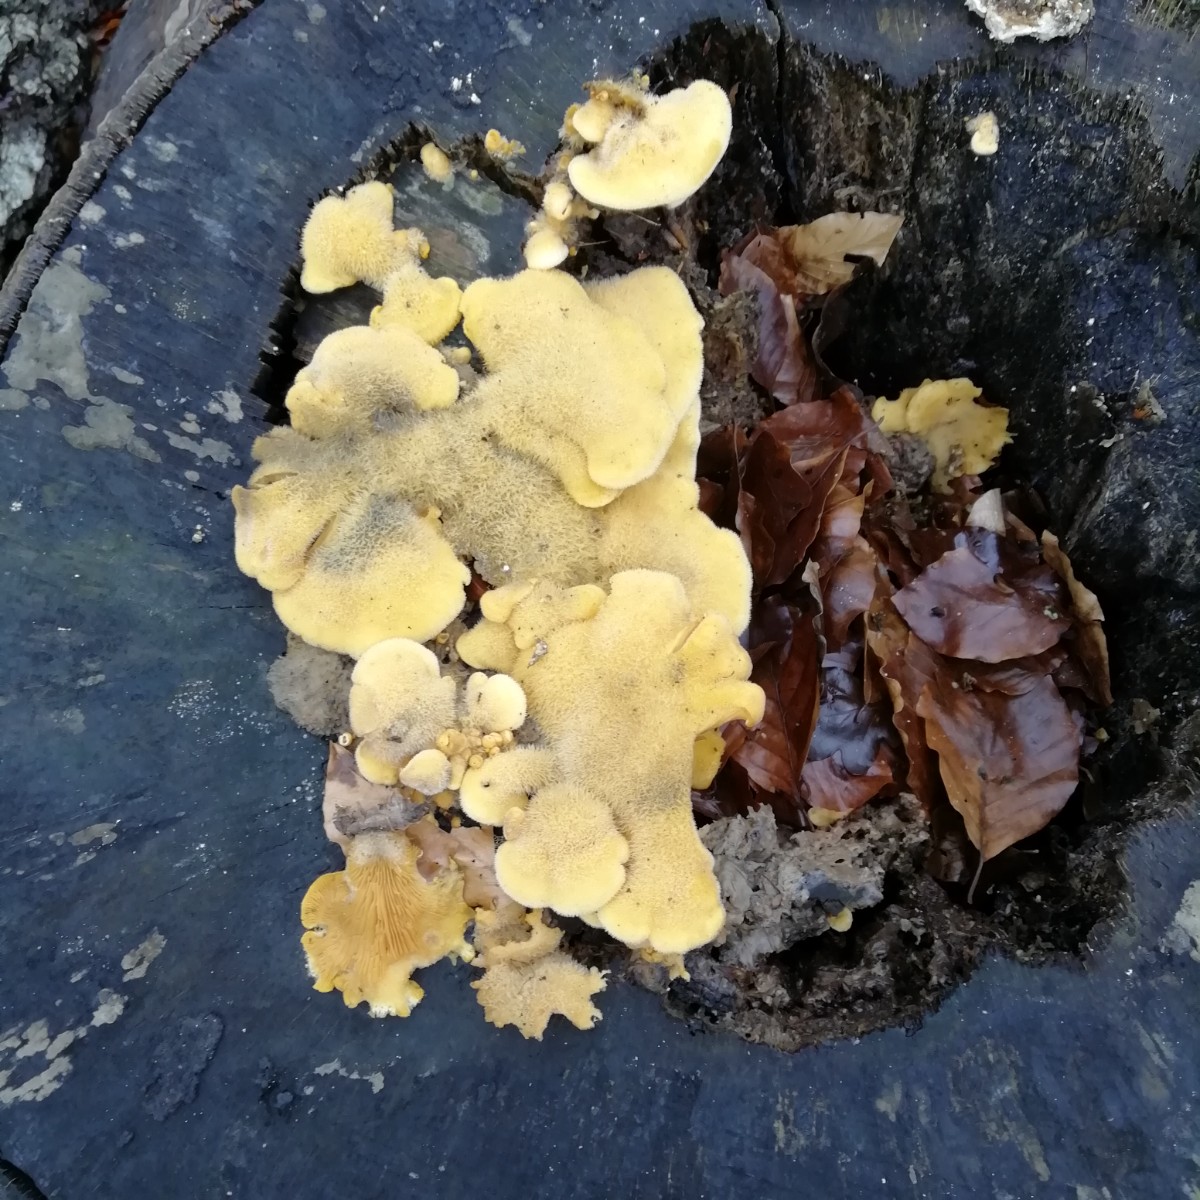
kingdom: Fungi
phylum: Basidiomycota
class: Agaricomycetes
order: Agaricales
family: Phyllotopsidaceae
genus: Phyllotopsis
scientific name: Phyllotopsis nidulans
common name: okkerblad
